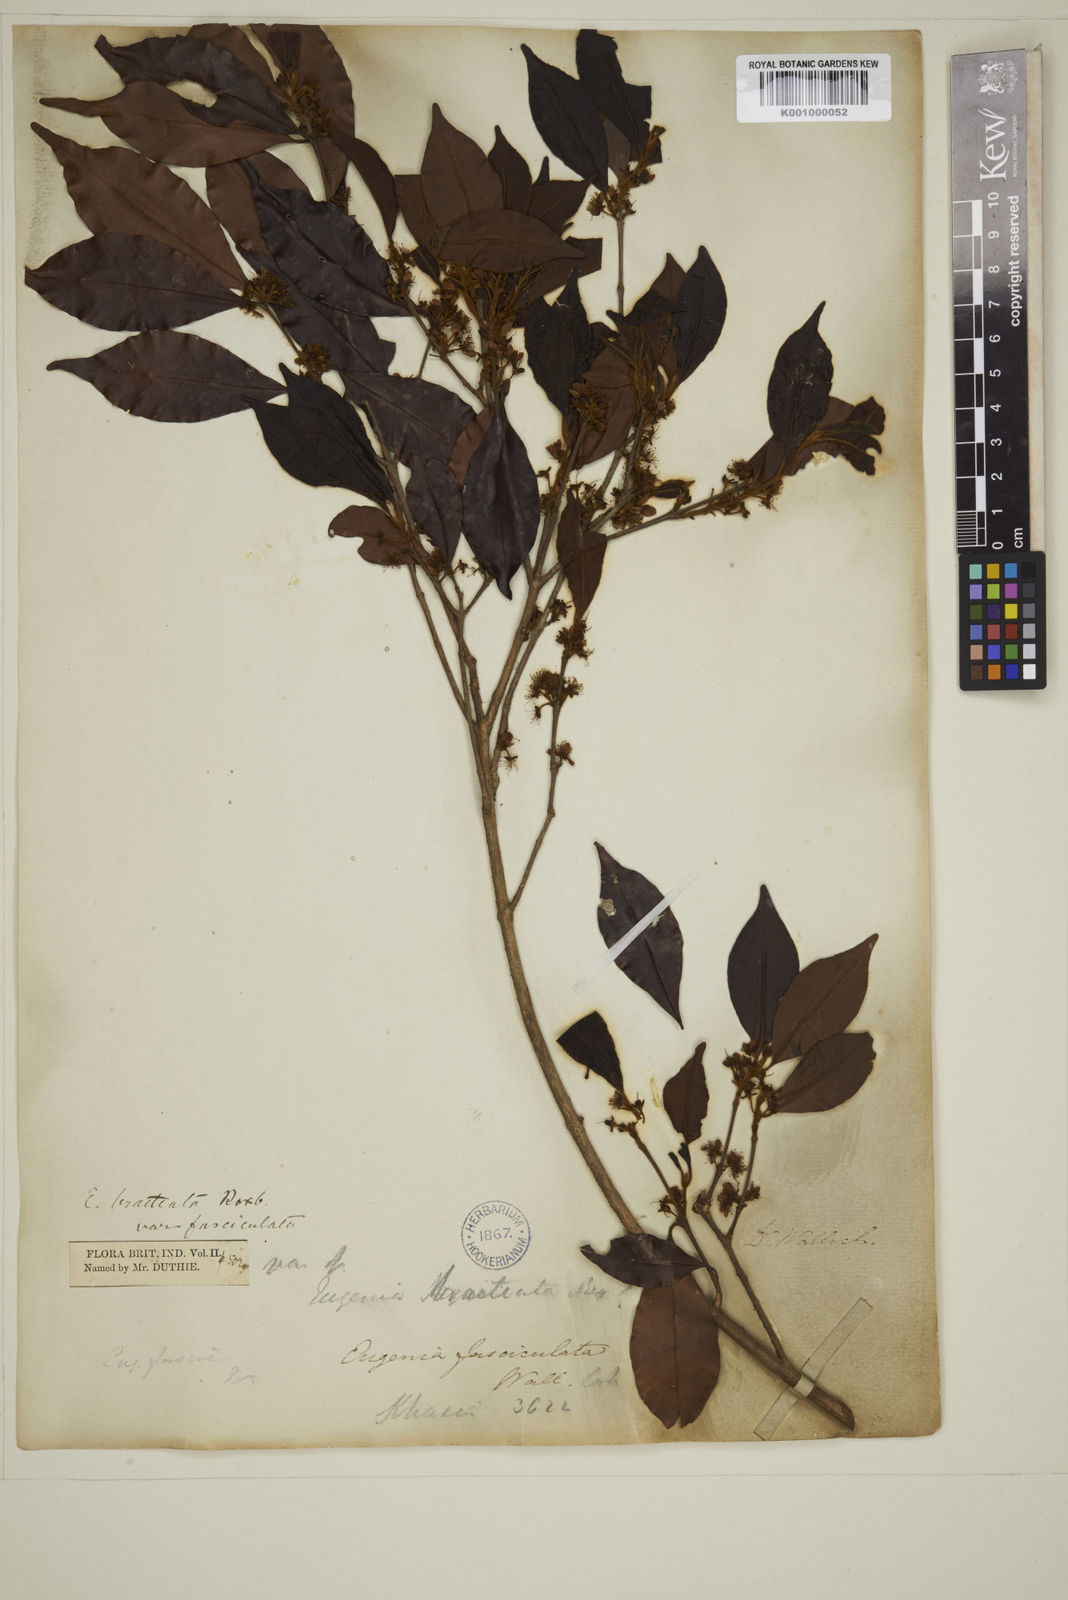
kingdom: Plantae
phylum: Tracheophyta
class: Magnoliopsida
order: Myrtales
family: Myrtaceae
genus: Myrcia
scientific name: Myrcia bracteata
